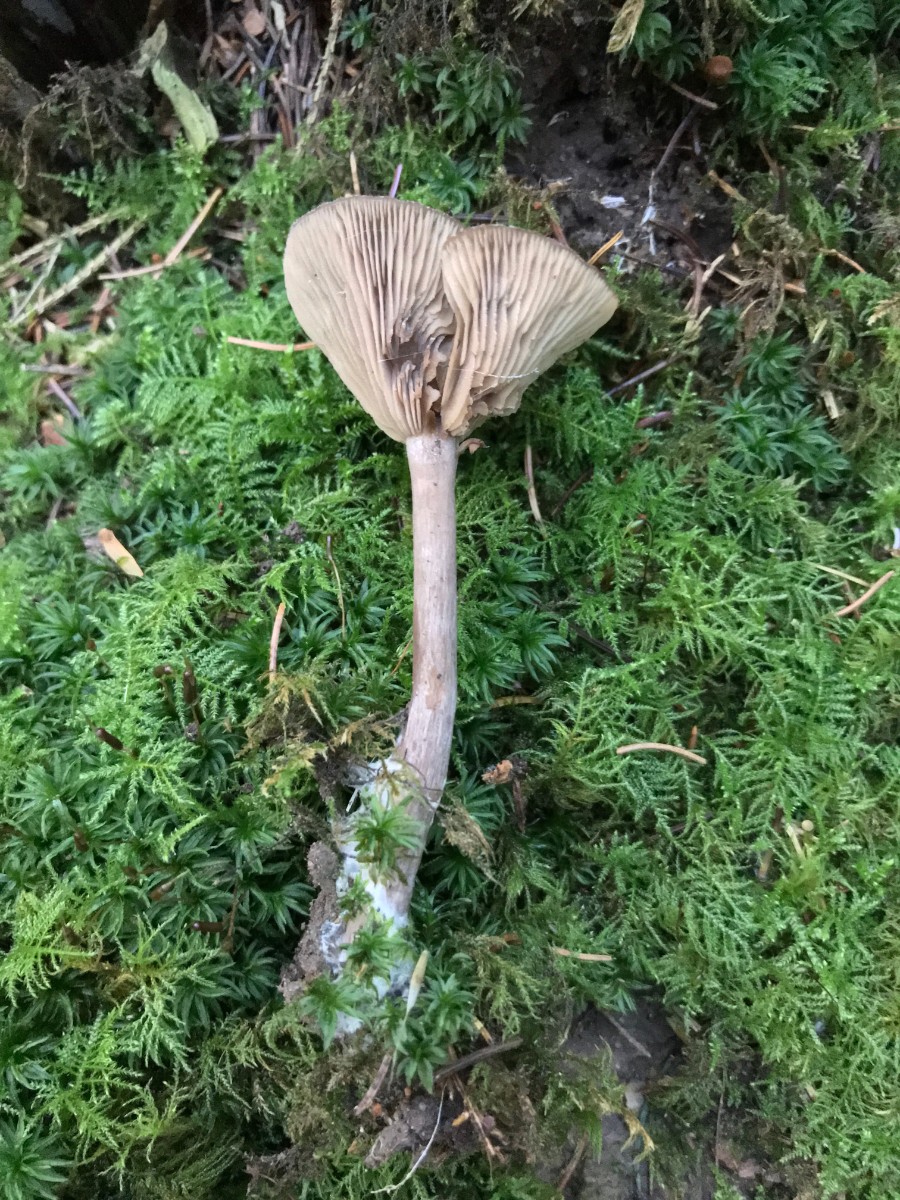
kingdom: Fungi
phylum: Basidiomycota
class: Agaricomycetes
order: Agaricales
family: Pseudoclitocybaceae
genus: Pseudoclitocybe
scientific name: Pseudoclitocybe cyathiformis
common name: almindelig bægertragthat
